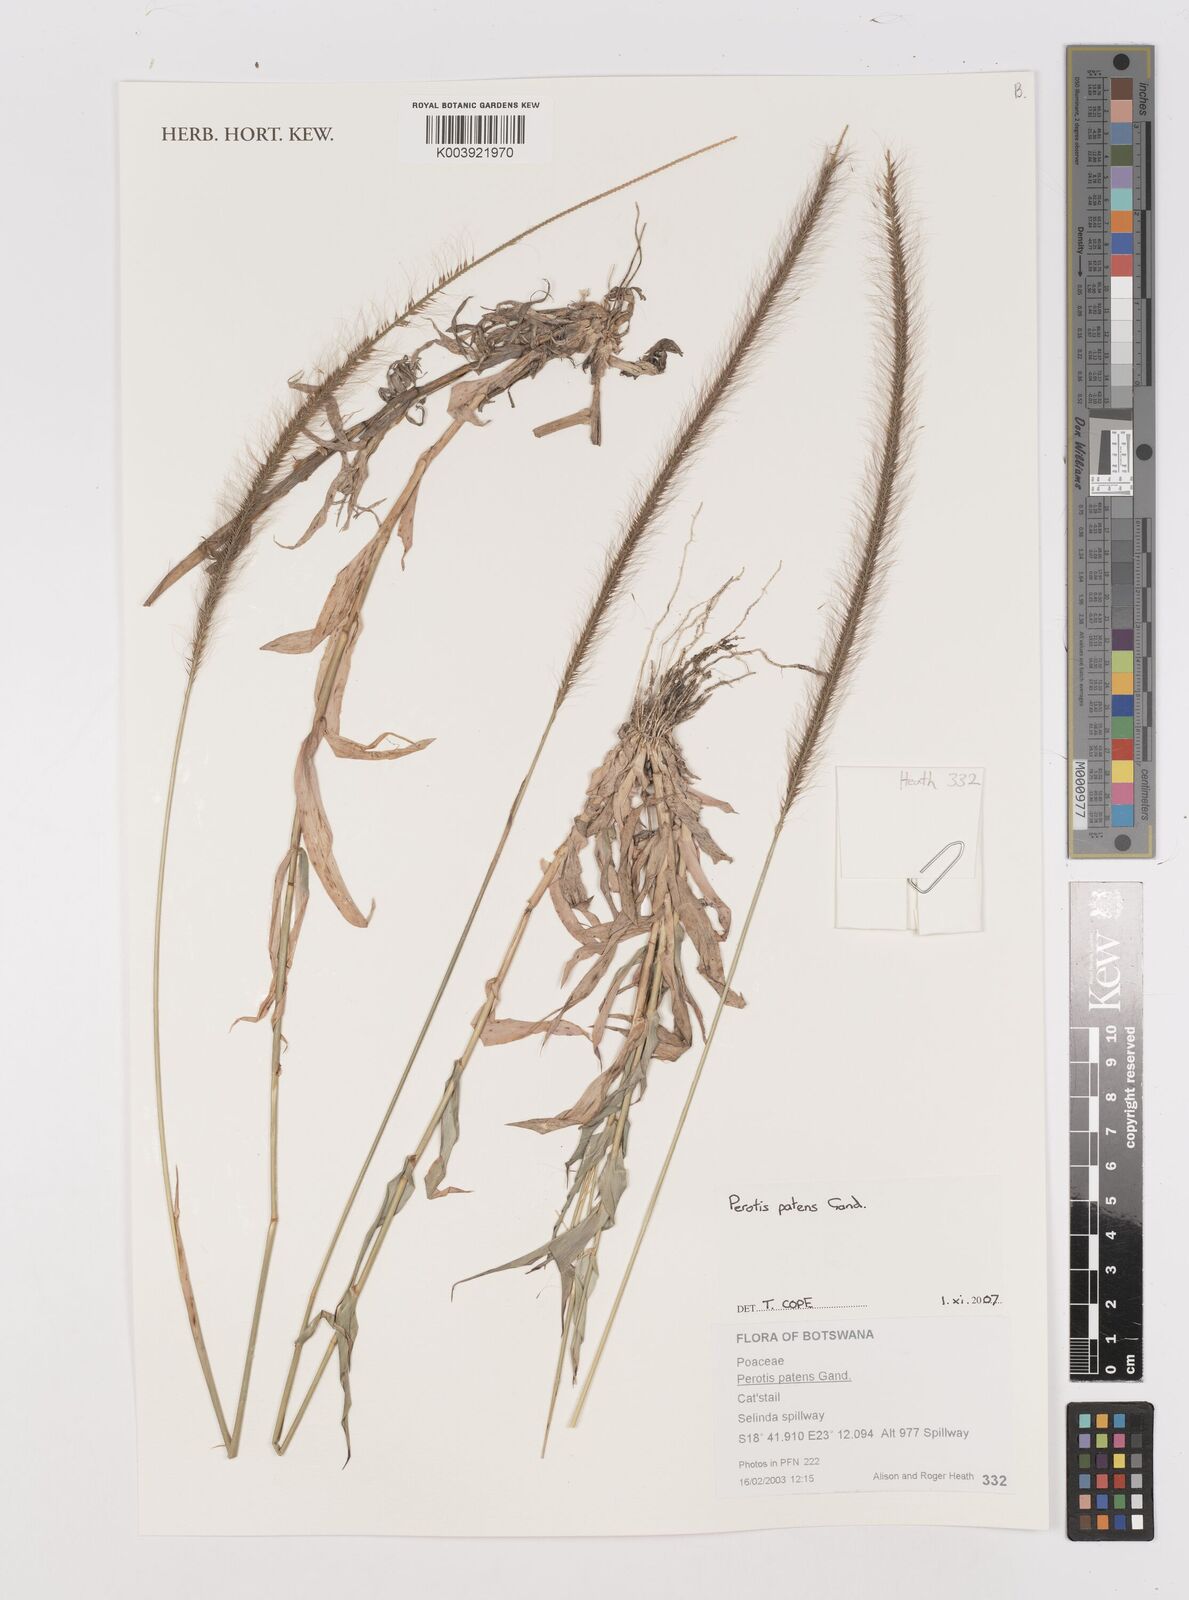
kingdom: Plantae
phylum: Tracheophyta
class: Liliopsida
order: Poales
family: Poaceae
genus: Perotis
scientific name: Perotis patens
